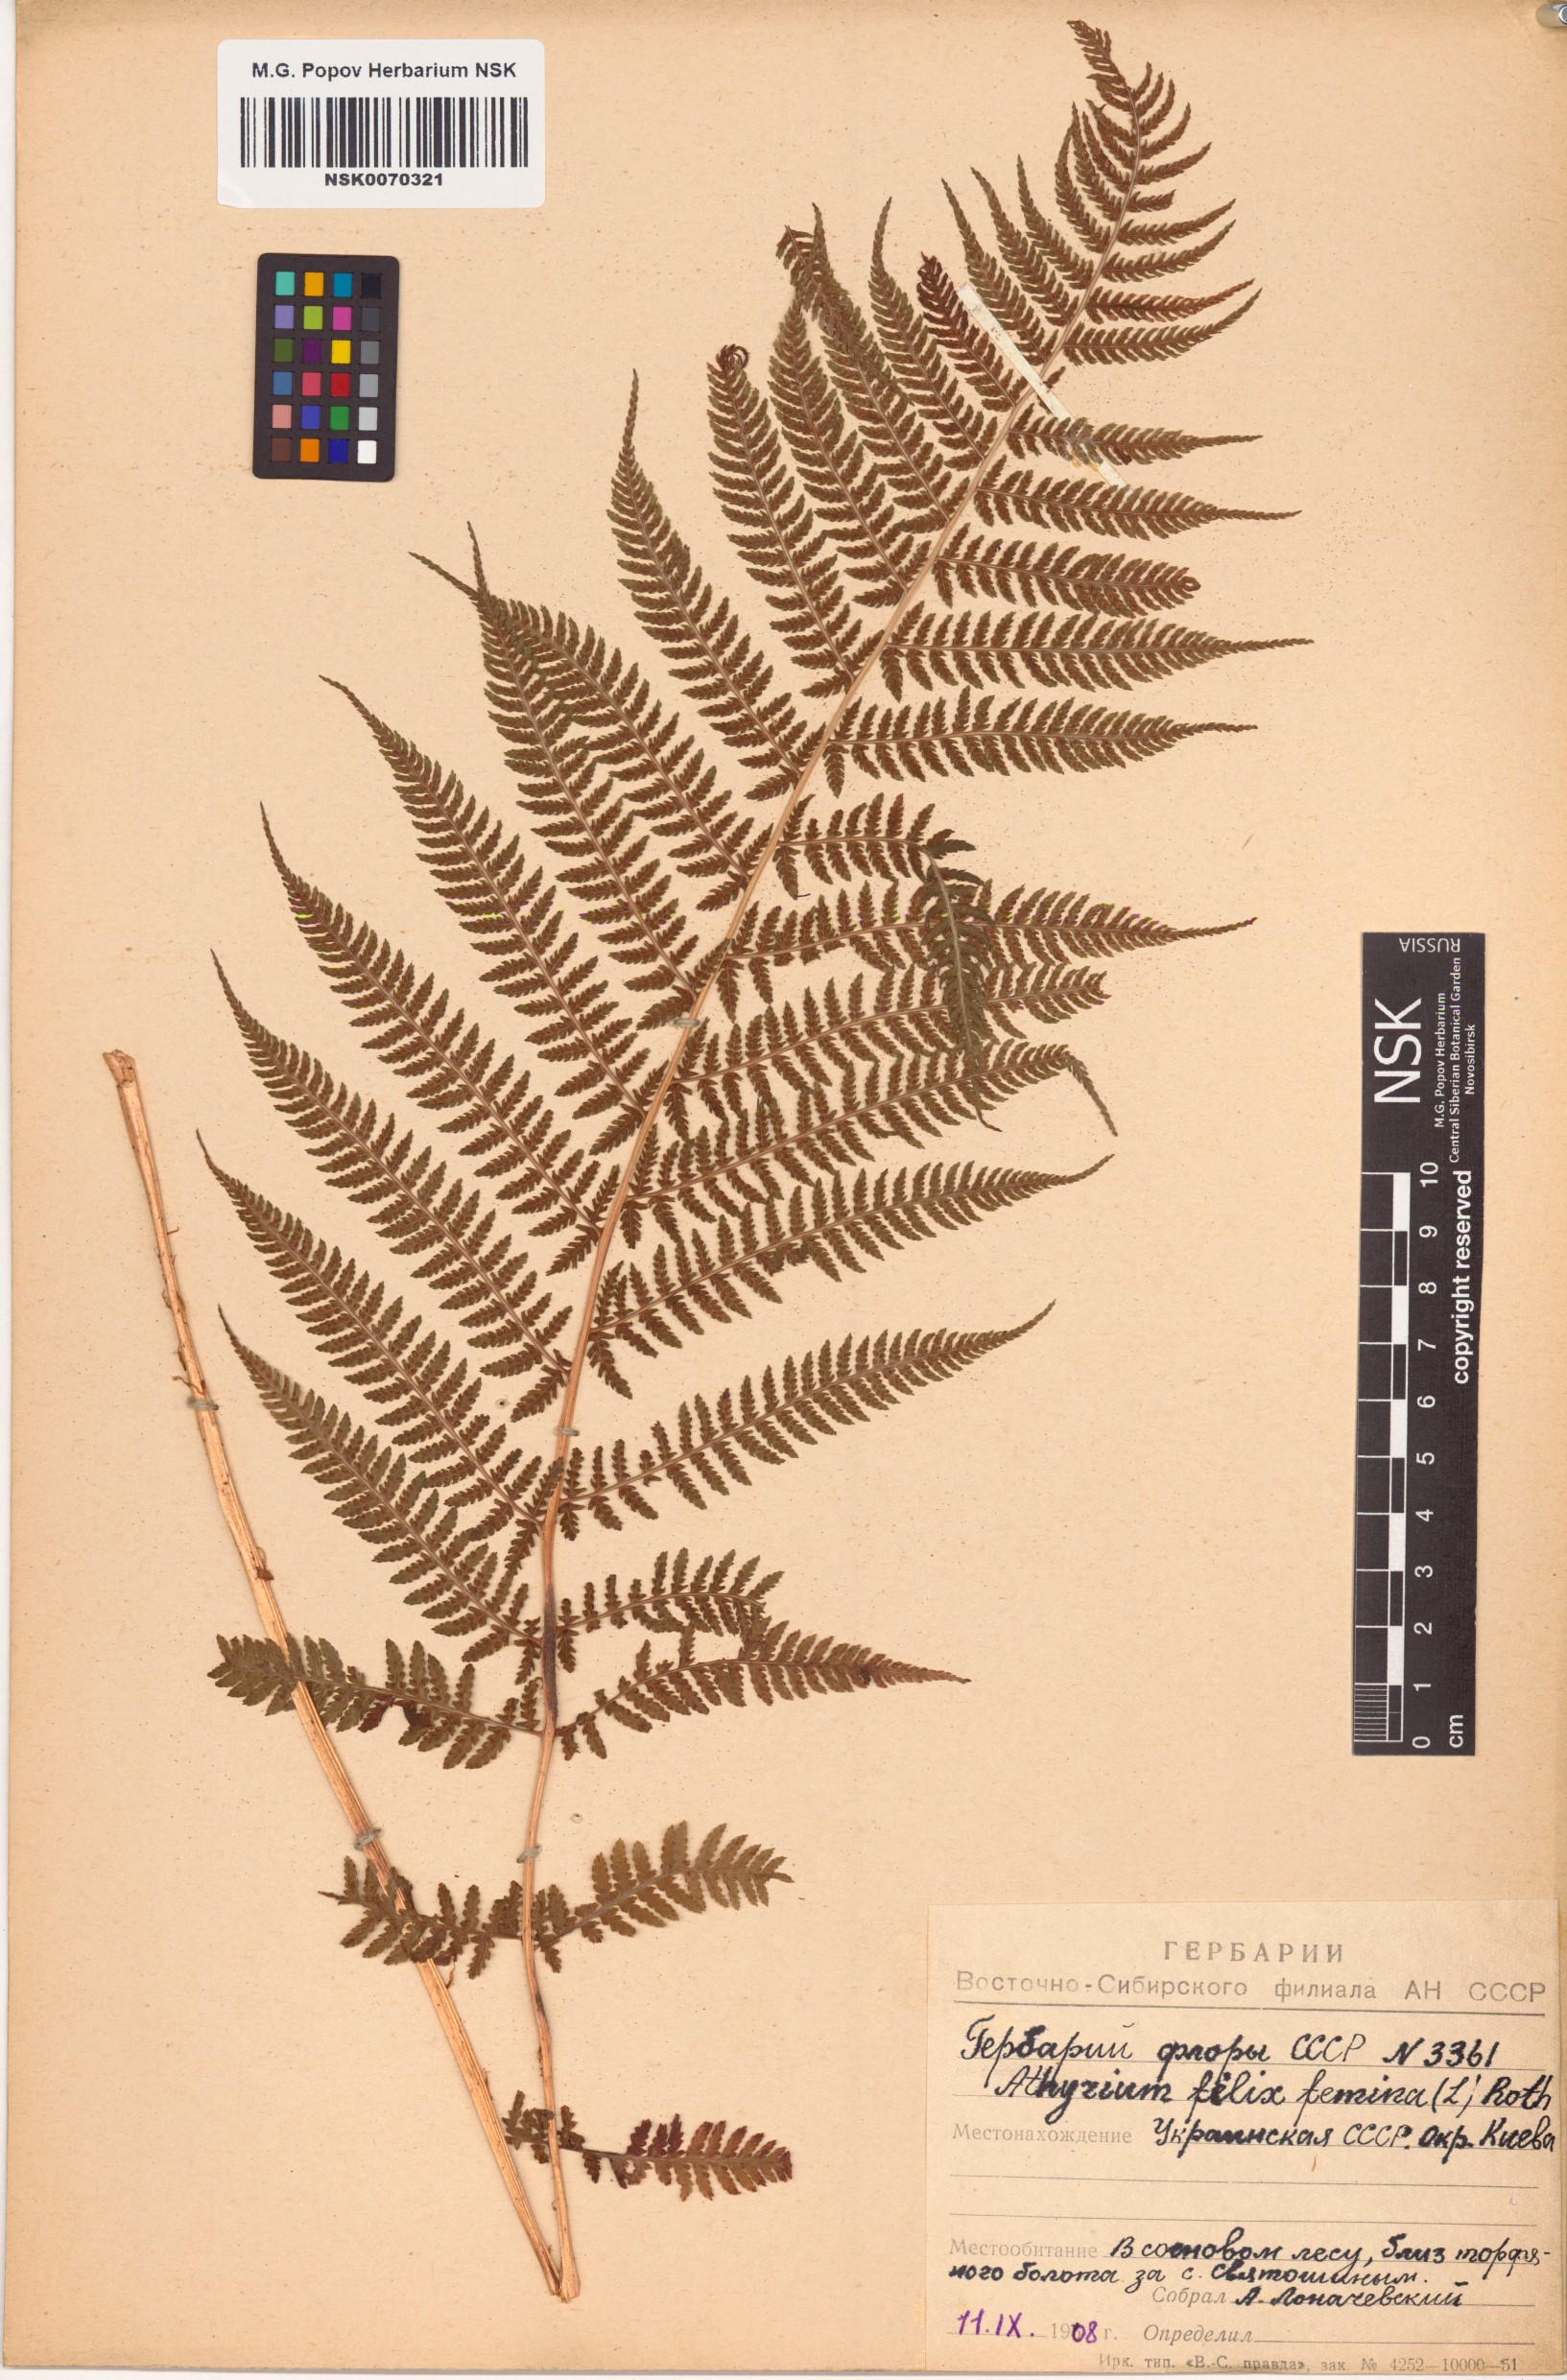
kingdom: Plantae
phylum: Tracheophyta
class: Polypodiopsida
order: Polypodiales
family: Athyriaceae
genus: Athyrium
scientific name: Athyrium filix-femina
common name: Lady fern
